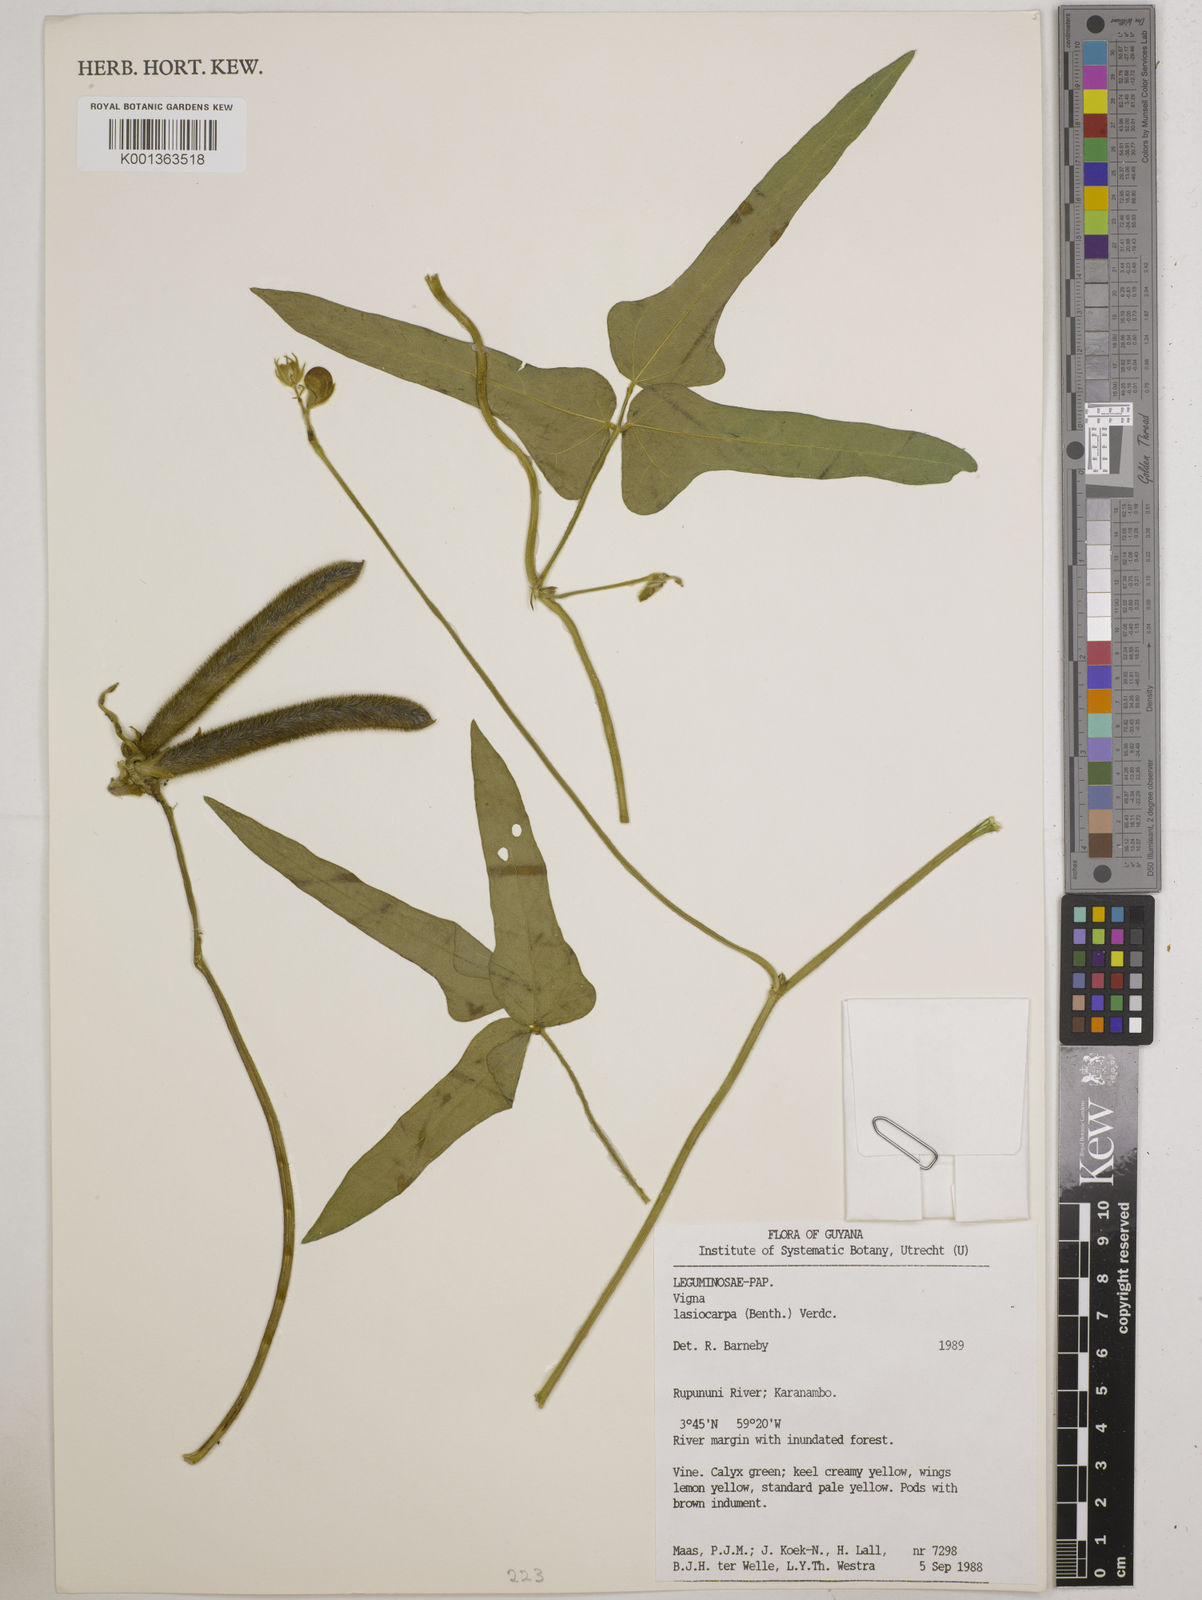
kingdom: Plantae
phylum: Tracheophyta
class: Magnoliopsida
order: Fabales
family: Fabaceae
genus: Vigna
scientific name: Vigna lasiocarpa
